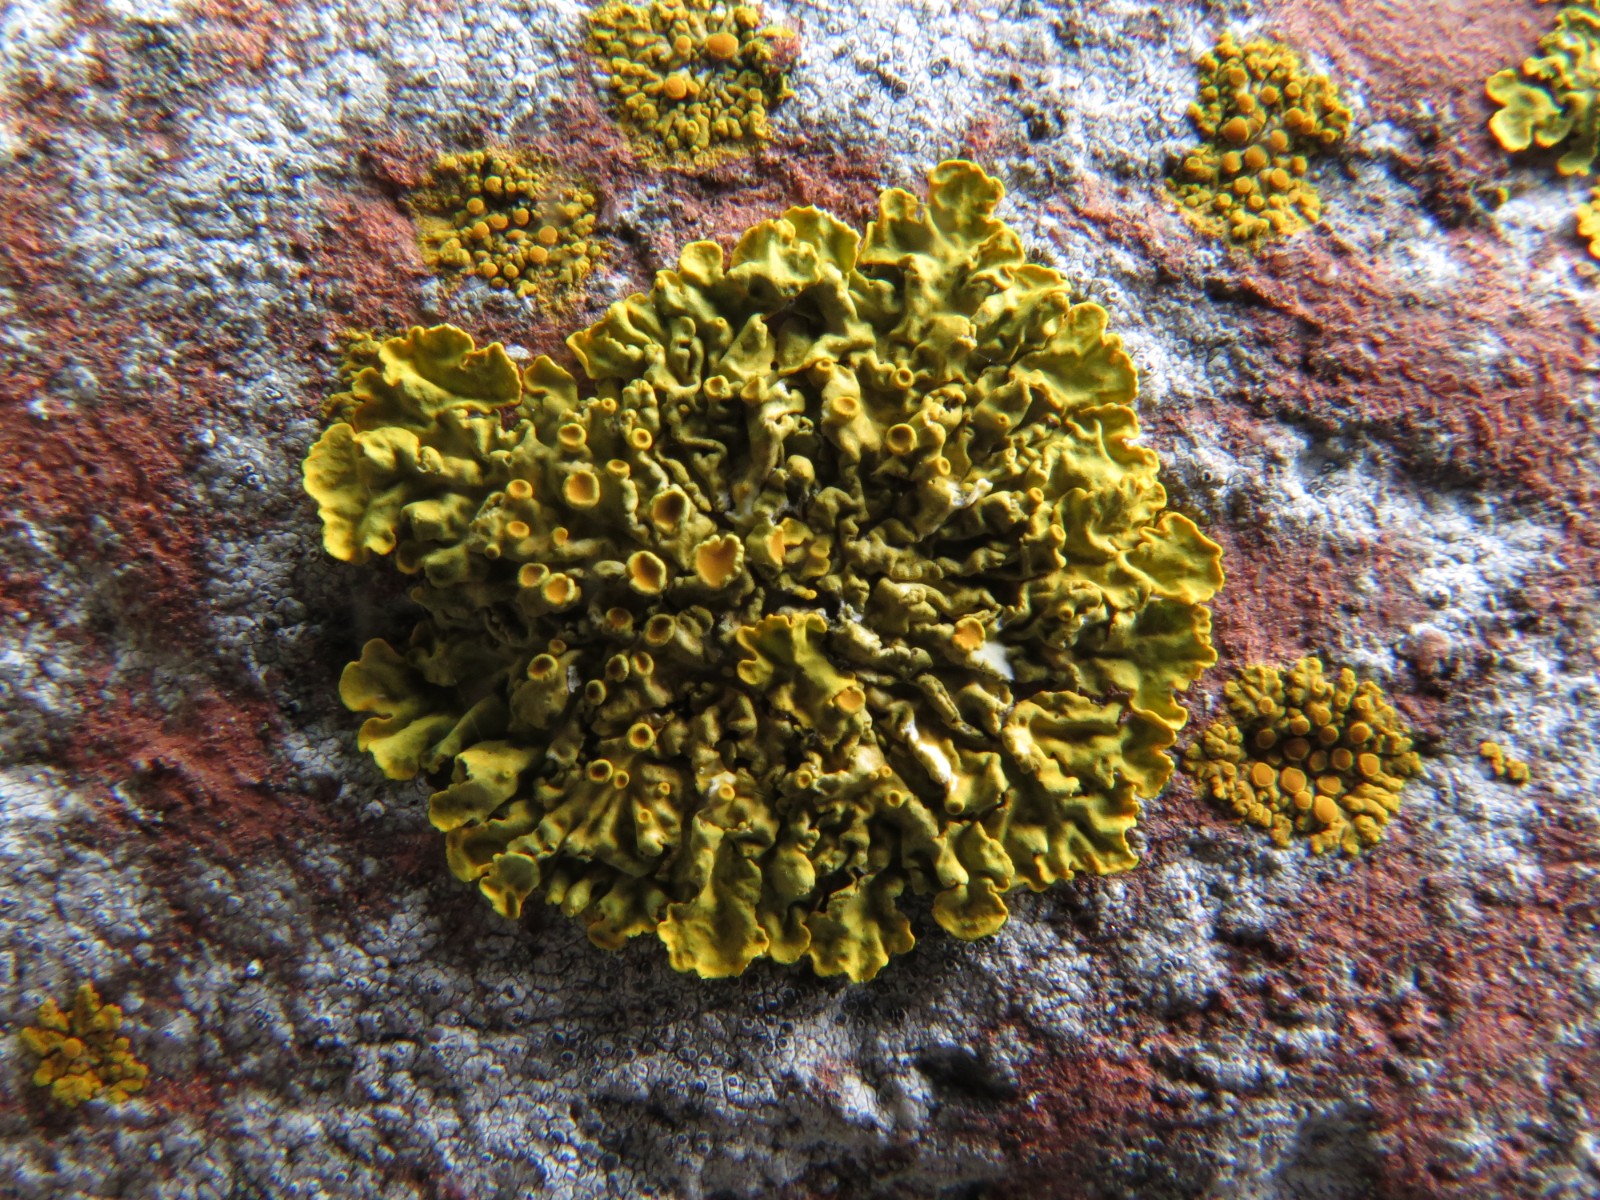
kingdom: Fungi
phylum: Ascomycota
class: Lecanoromycetes
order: Teloschistales
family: Teloschistaceae
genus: Xanthoria
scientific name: Xanthoria parietina
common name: almindelig væggelav
